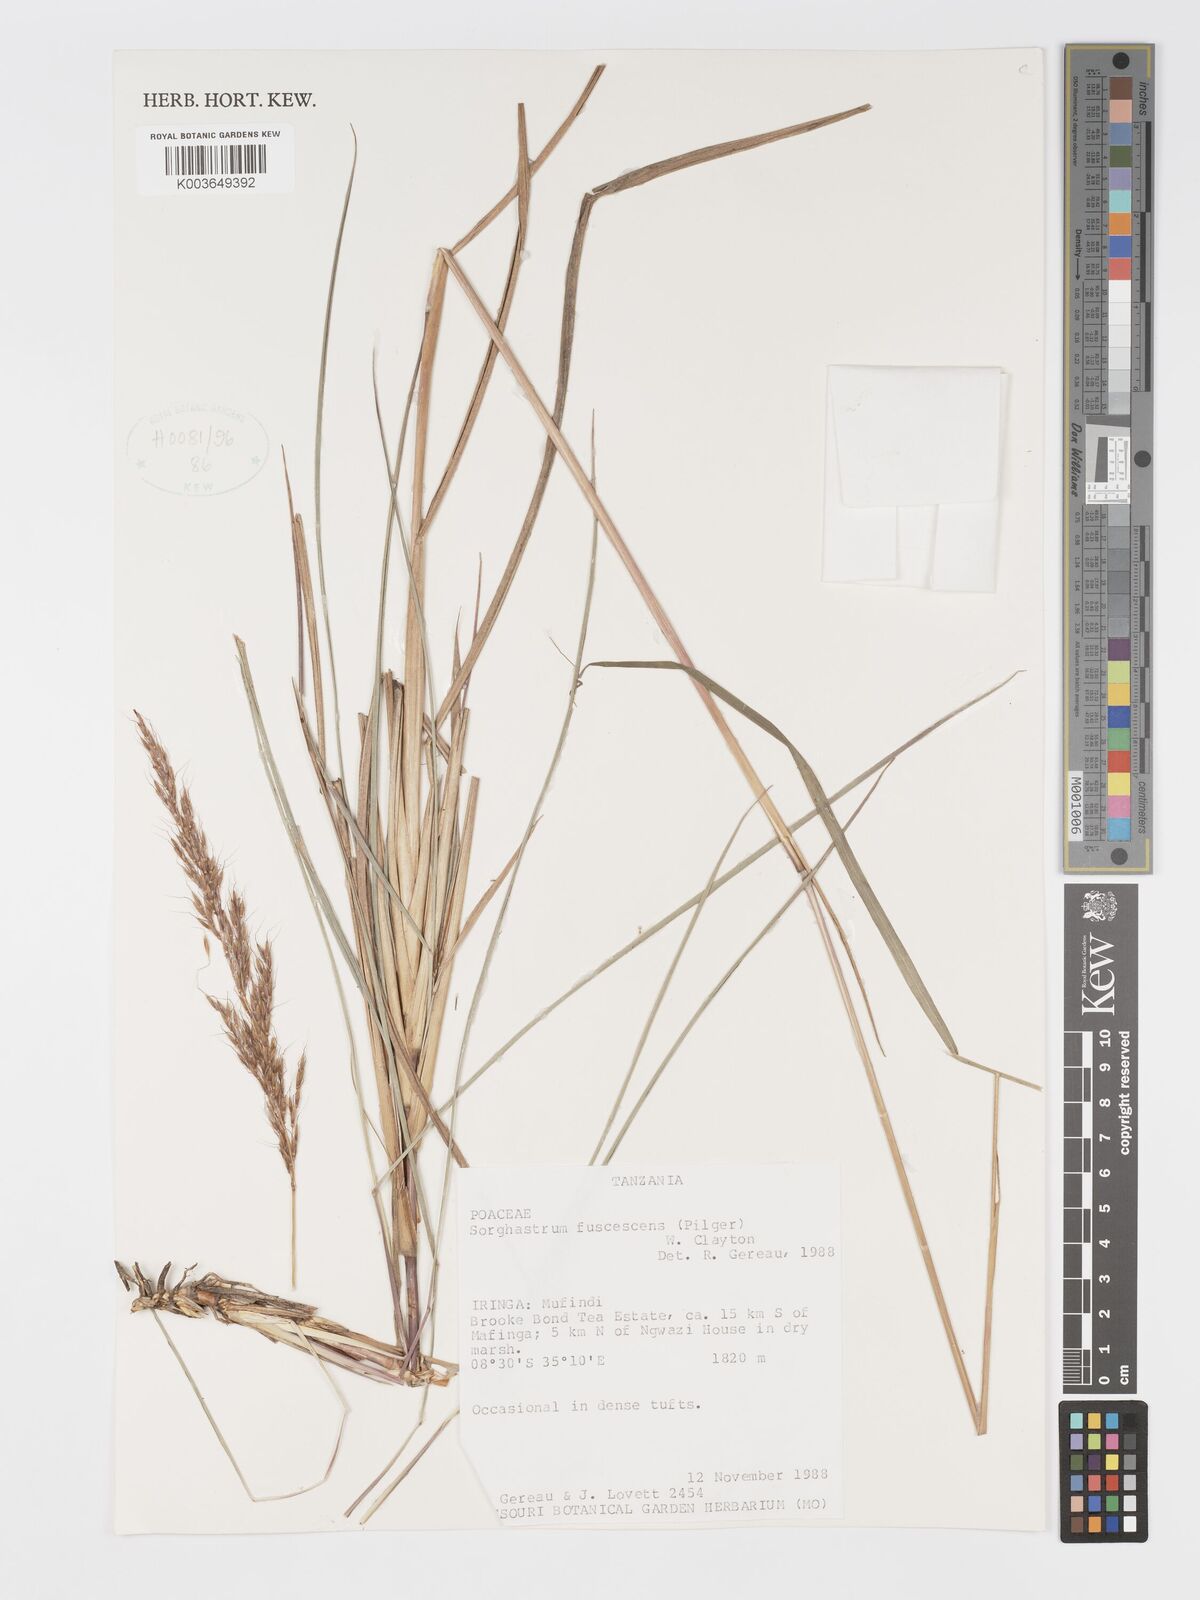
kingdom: Plantae
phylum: Tracheophyta
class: Liliopsida
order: Poales
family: Poaceae
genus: Sorghastrum
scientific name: Sorghastrum fuscescens
